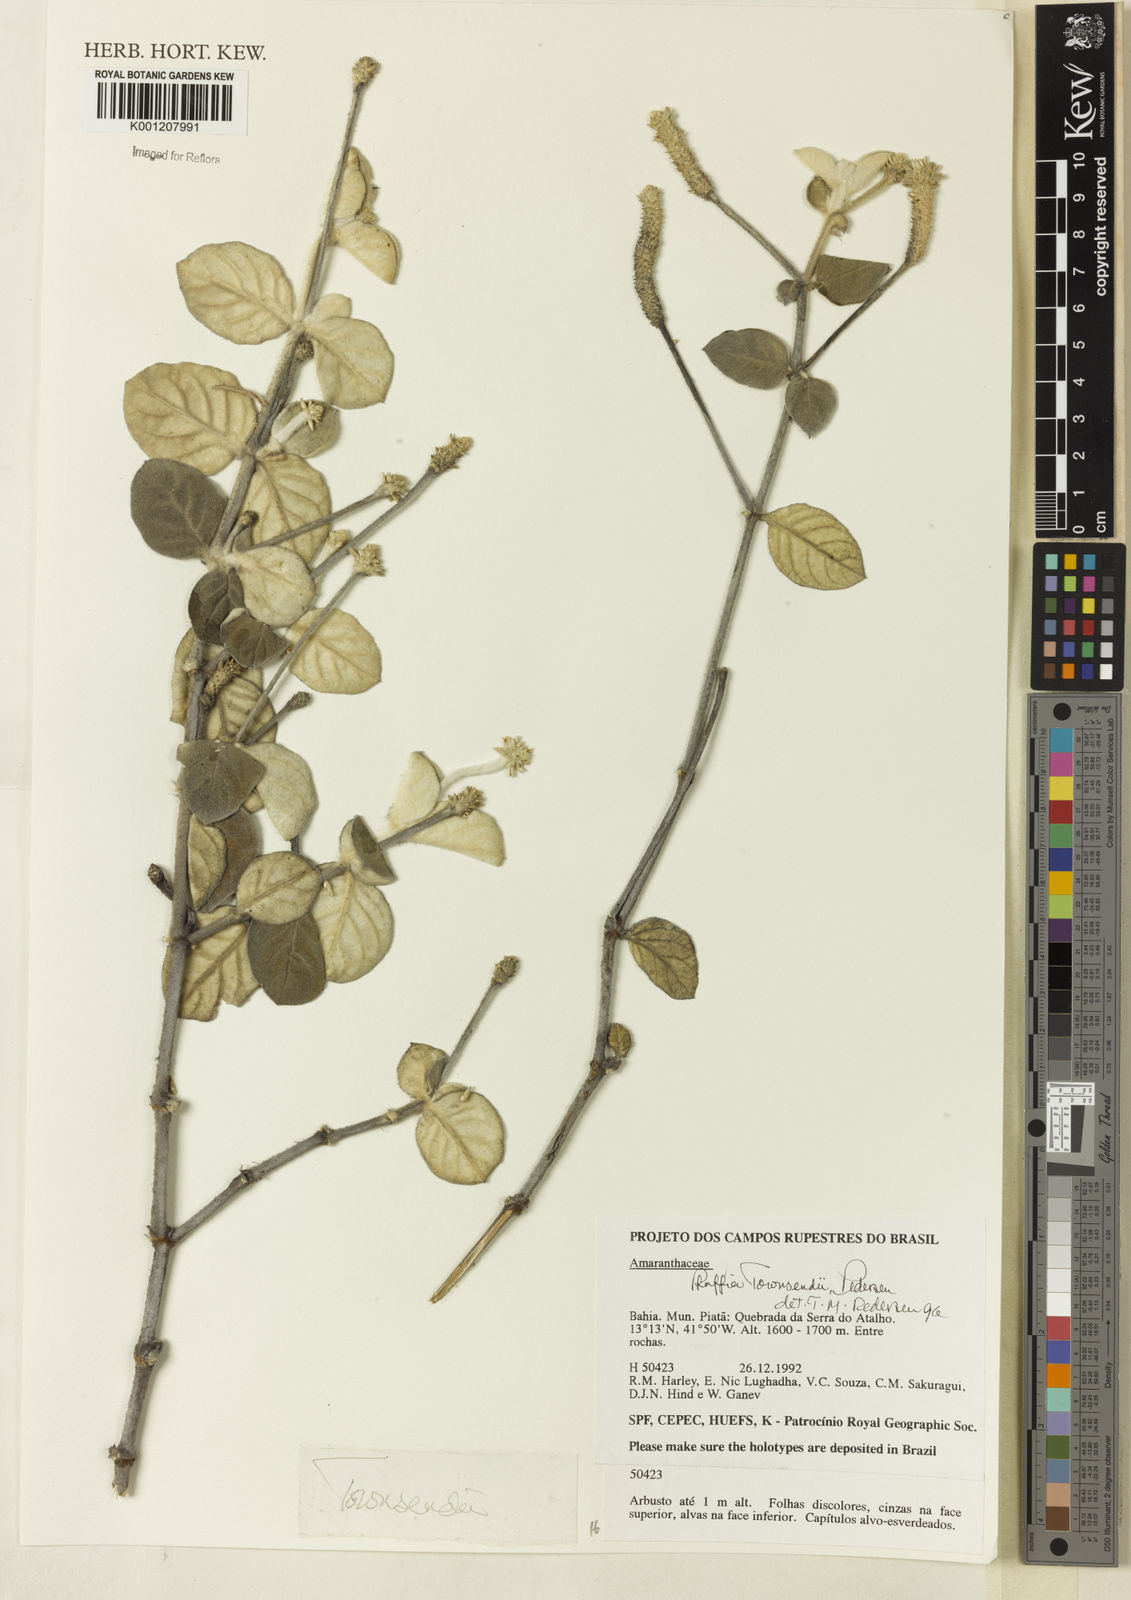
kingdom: Plantae
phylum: Tracheophyta
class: Magnoliopsida
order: Caryophyllales
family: Amaranthaceae
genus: Pfaffia
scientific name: Pfaffia townsendii
